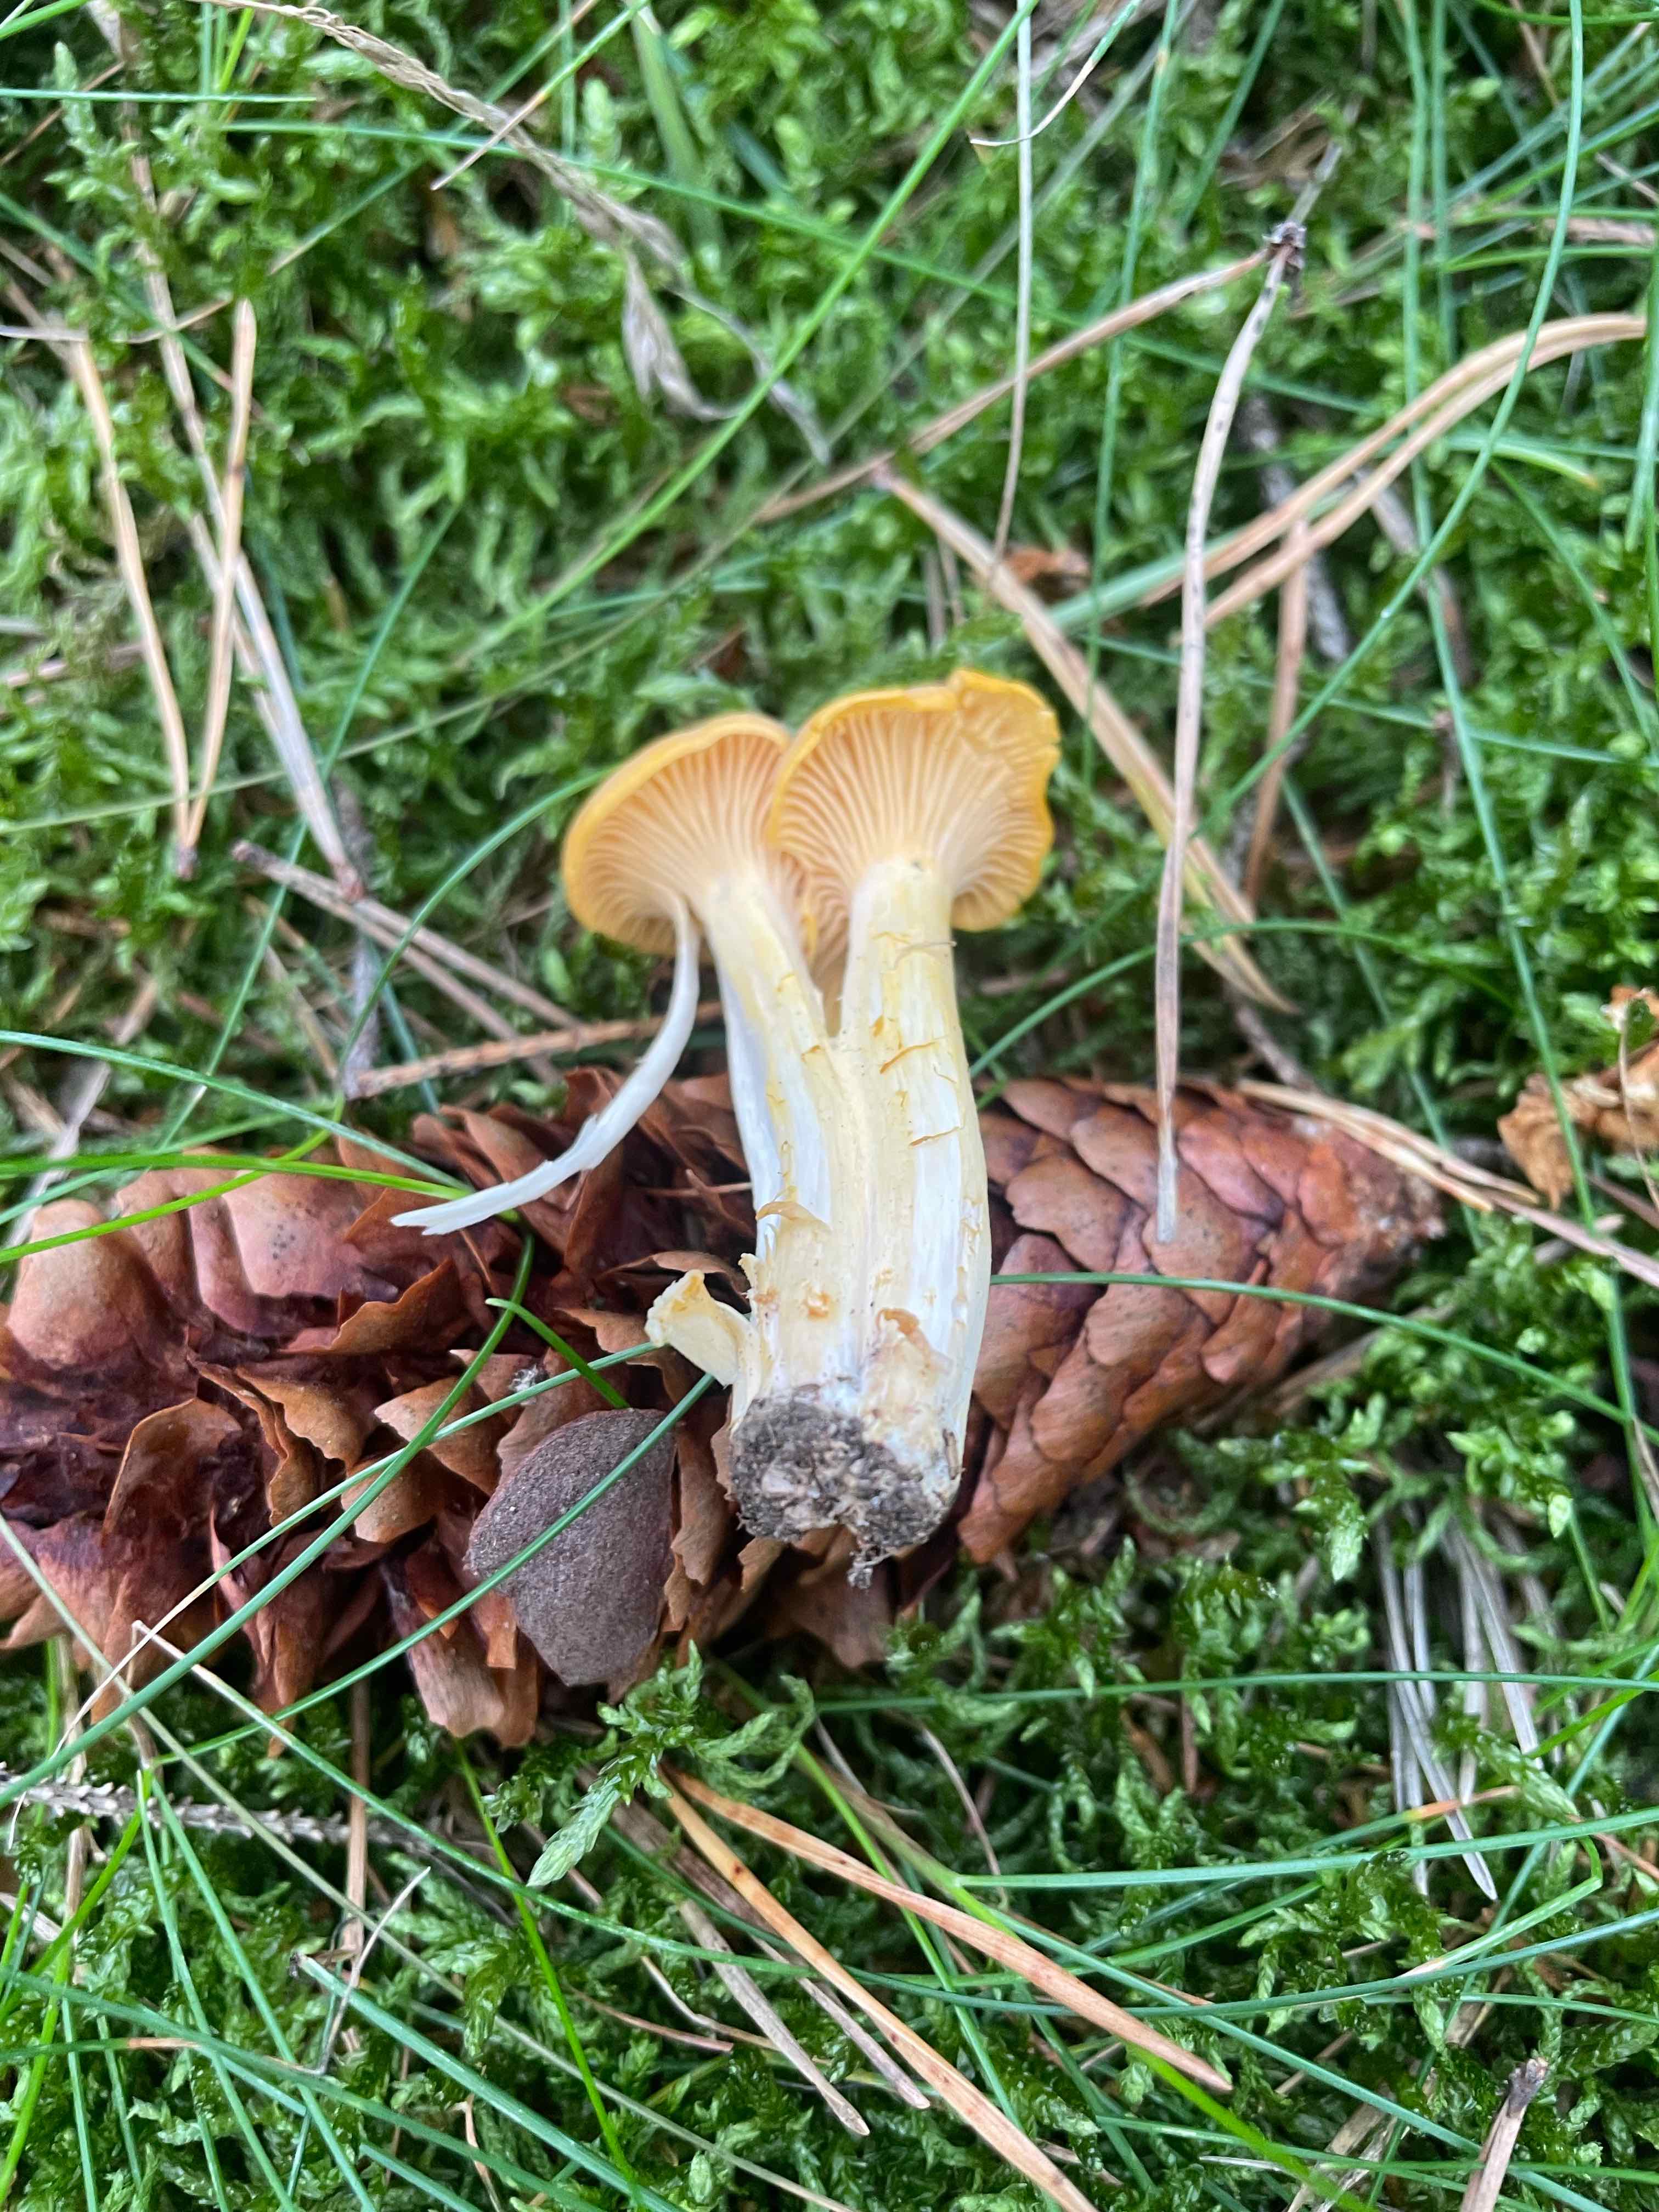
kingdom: Fungi
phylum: Basidiomycota
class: Agaricomycetes
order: Cantharellales
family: Hydnaceae
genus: Cantharellus
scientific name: Cantharellus cibarius
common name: almindelig kantarel
